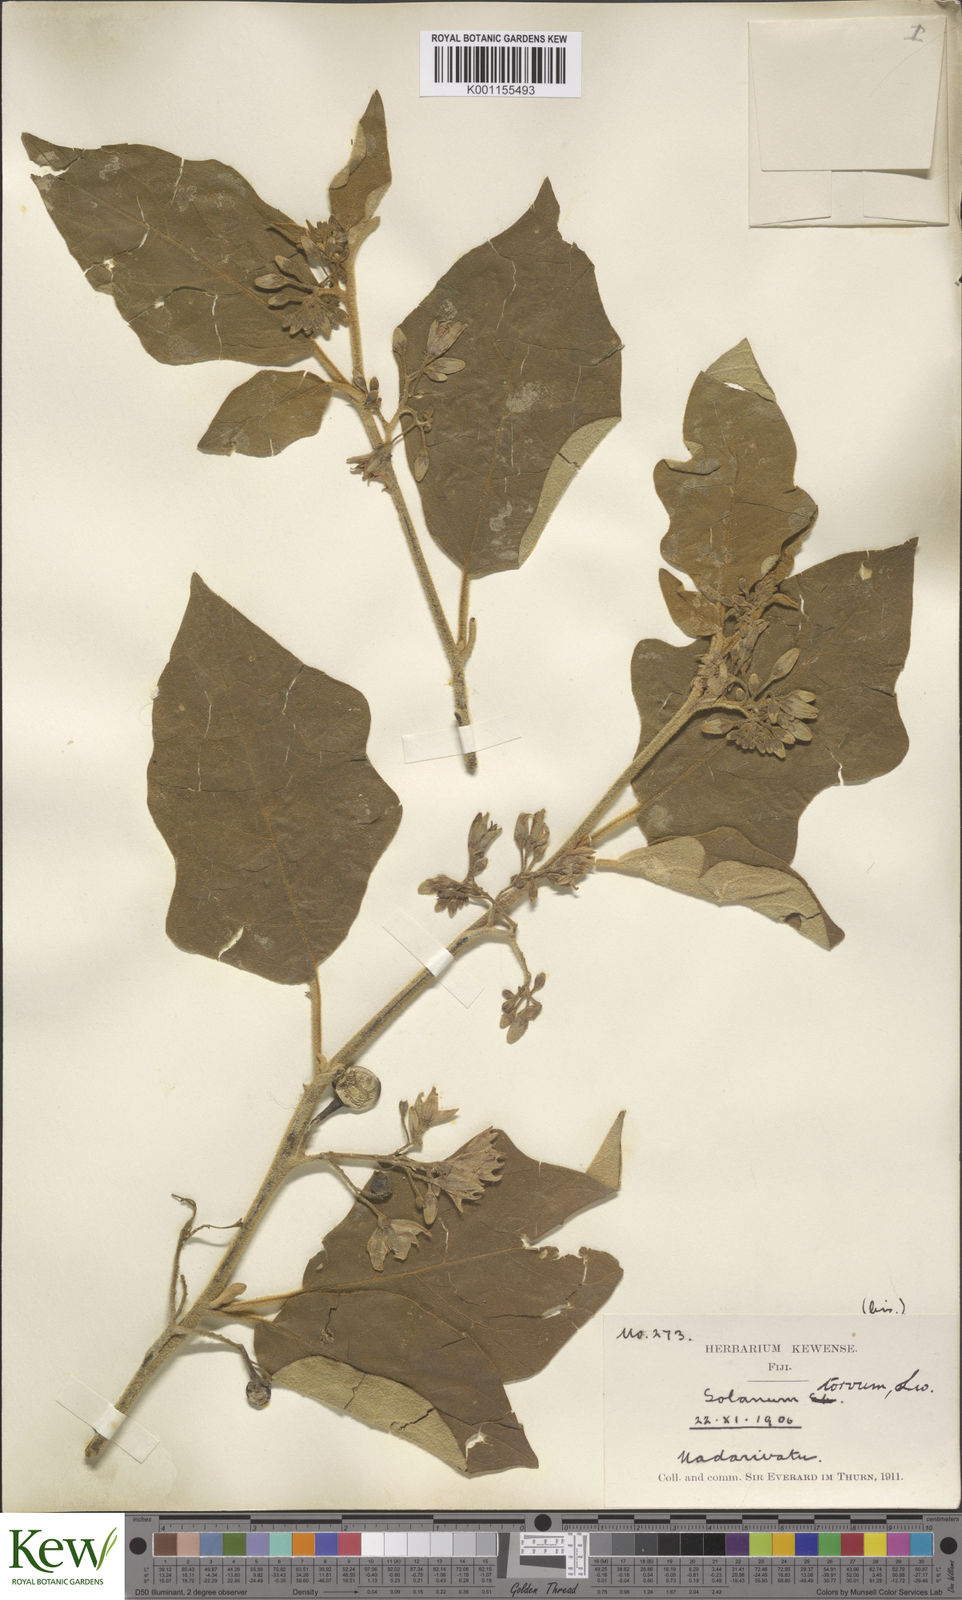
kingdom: Plantae
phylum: Tracheophyta
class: Magnoliopsida
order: Solanales
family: Solanaceae
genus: Solanum
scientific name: Solanum torvum
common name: Turkey berry
